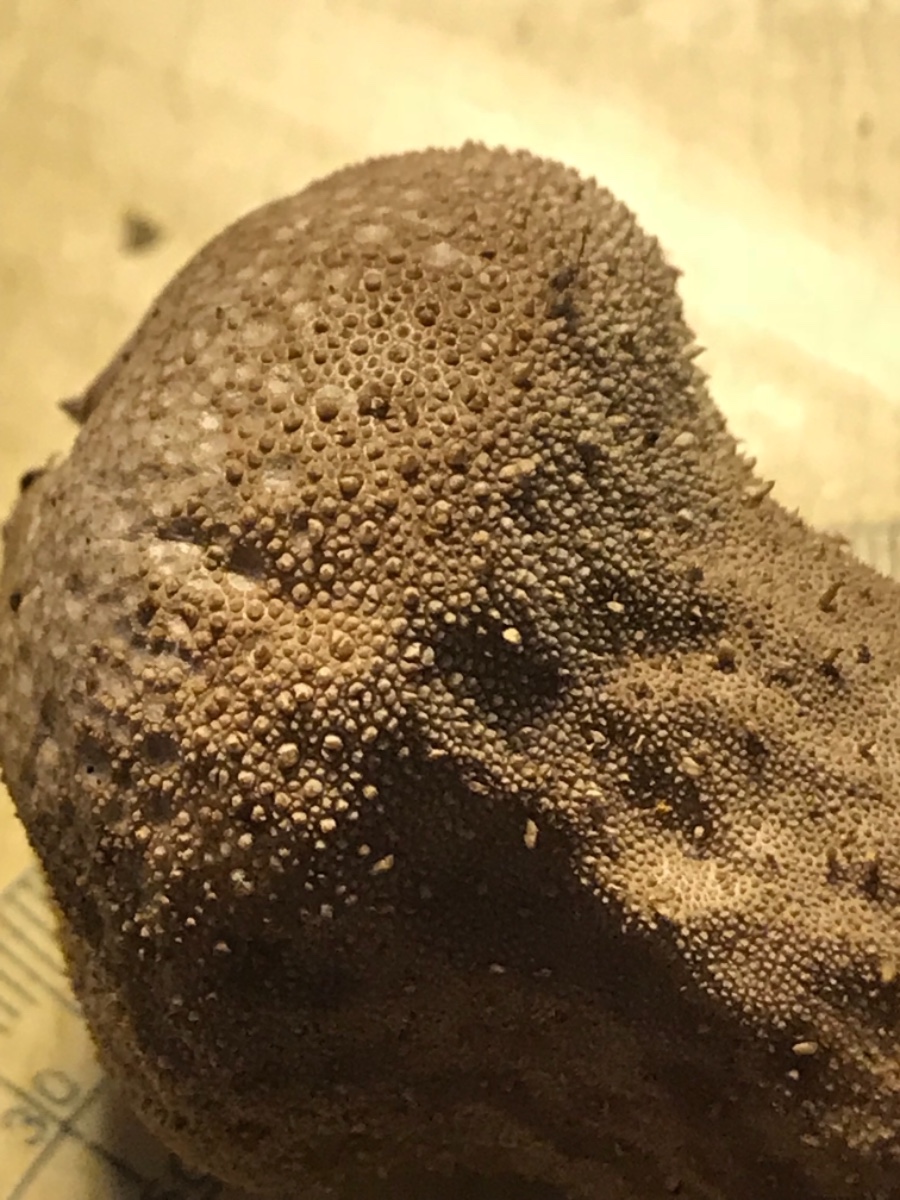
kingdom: Fungi
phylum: Basidiomycota
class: Agaricomycetes
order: Agaricales
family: Lycoperdaceae
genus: Lycoperdon
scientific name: Lycoperdon perlatum
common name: krystal-støvbold
